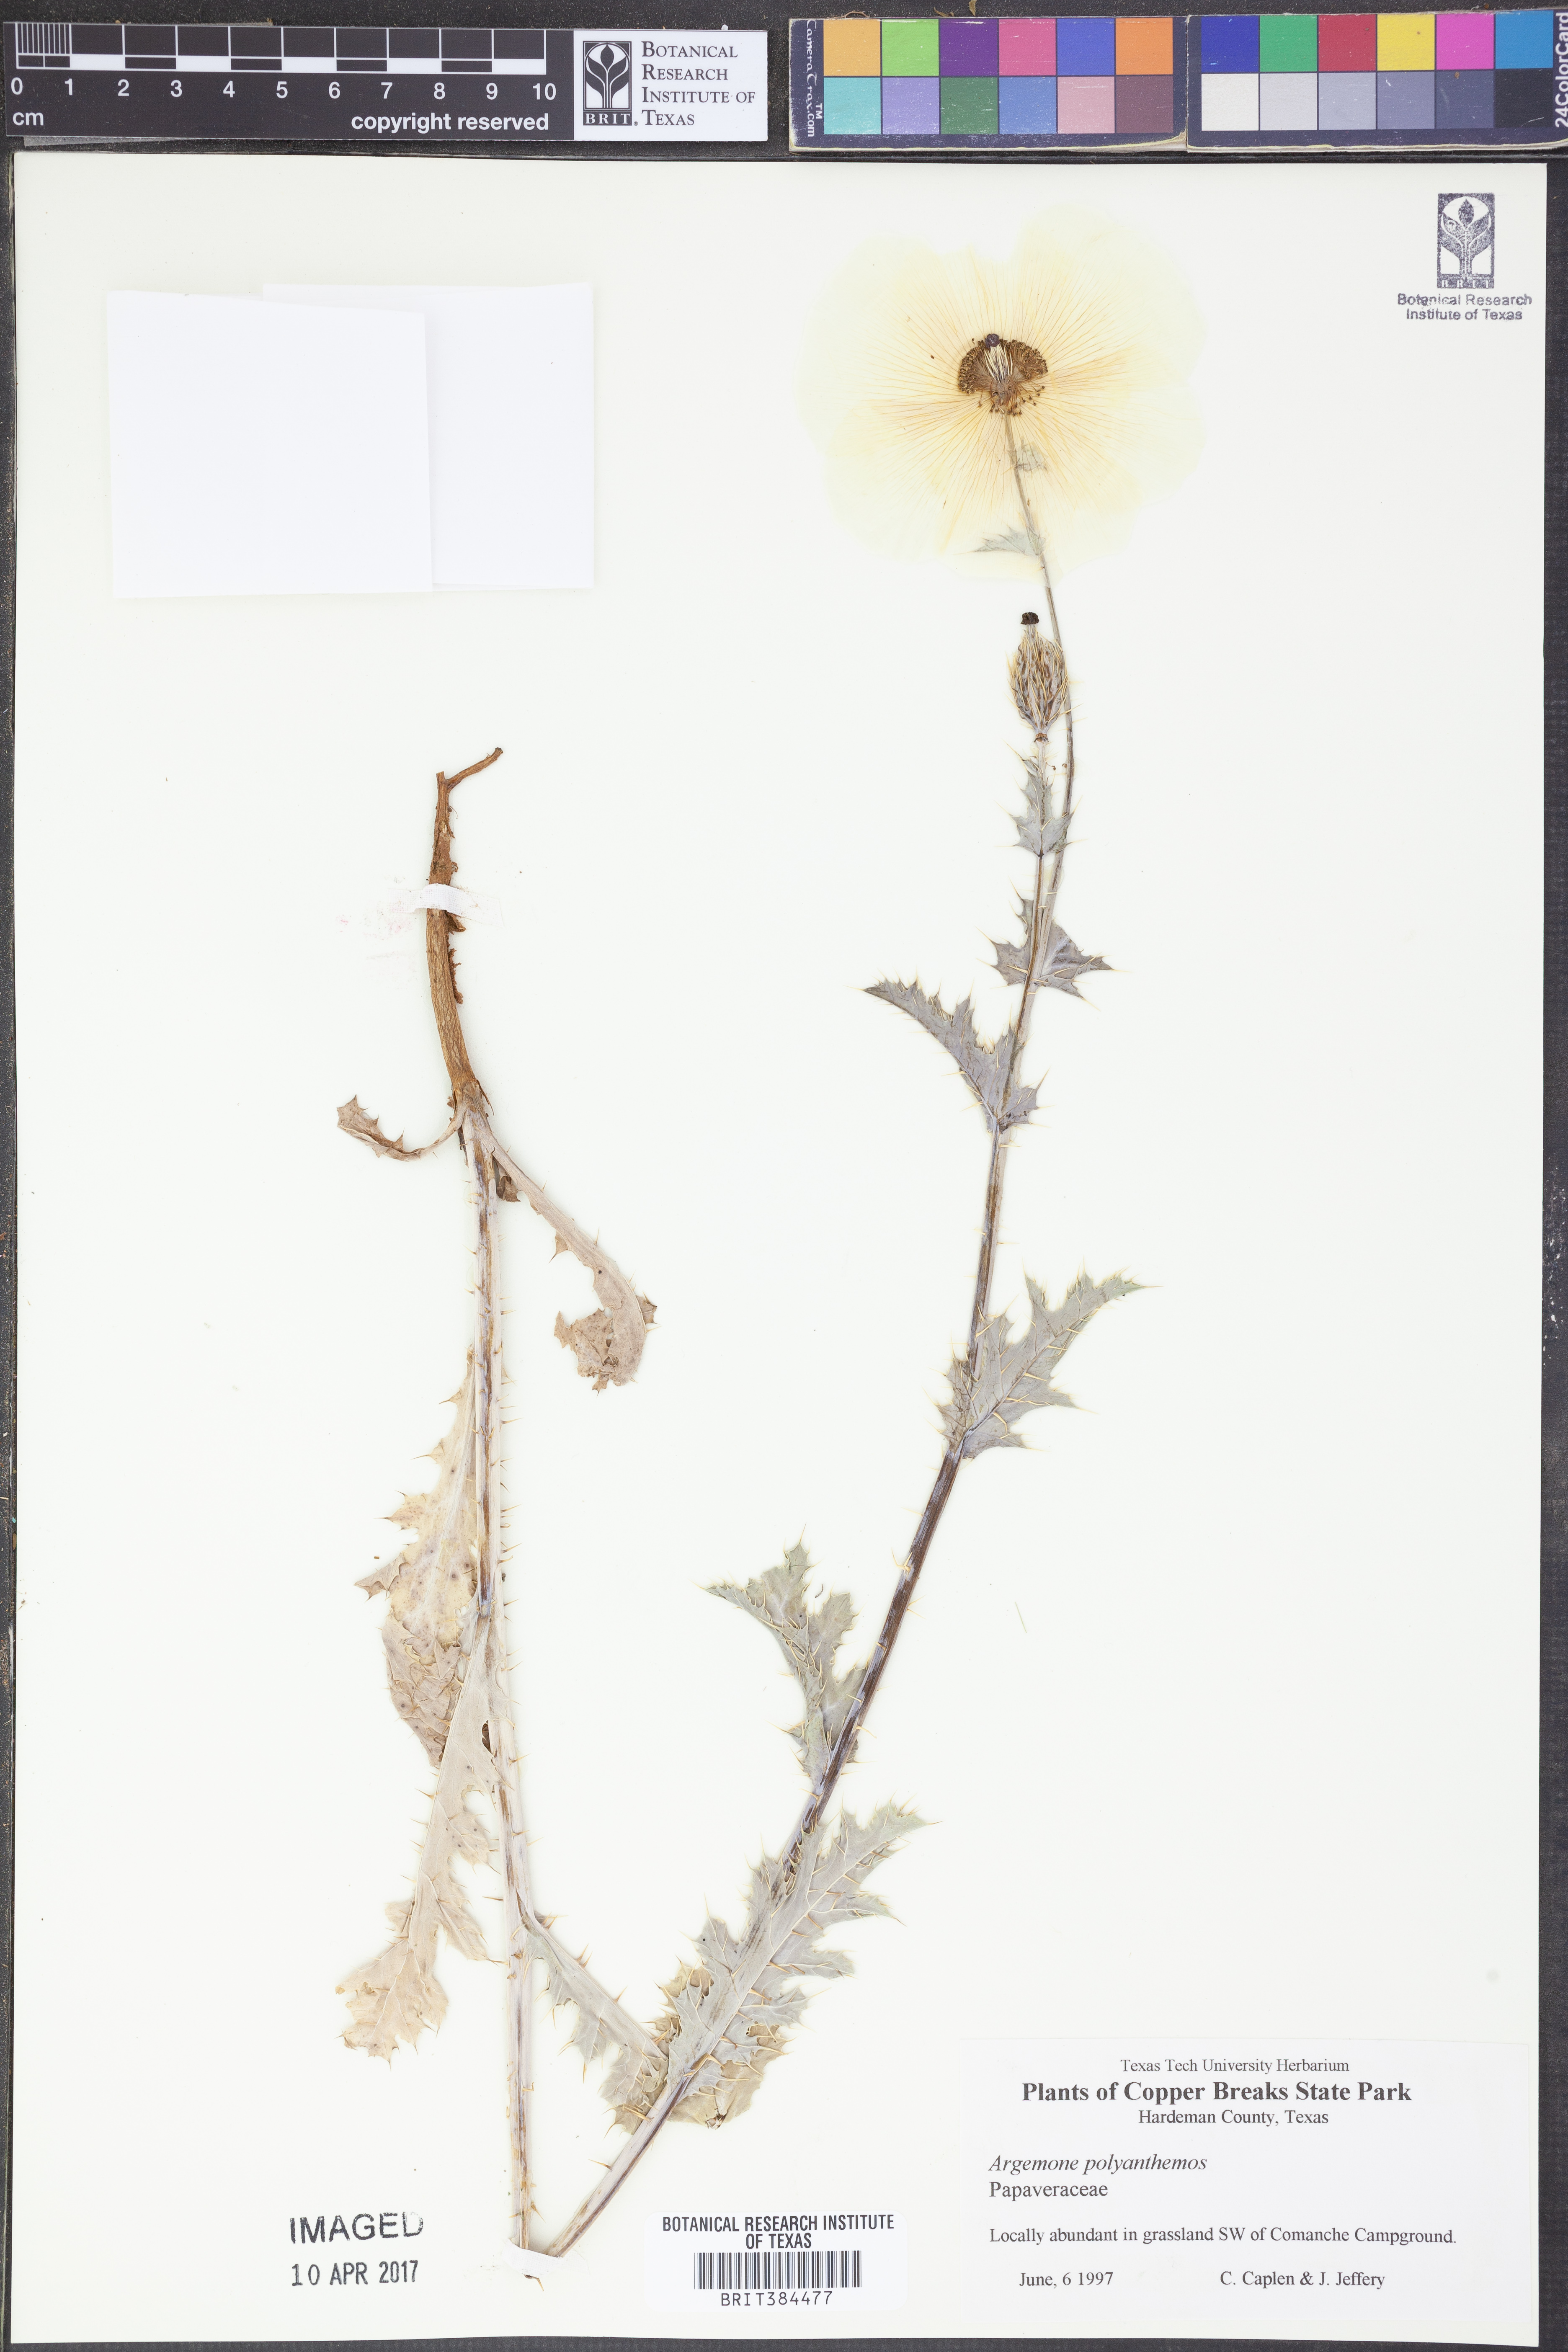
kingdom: Plantae
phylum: Tracheophyta
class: Magnoliopsida
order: Ranunculales
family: Papaveraceae
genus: Argemone
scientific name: Argemone polyanthemos
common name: Plains prickly-poppy
